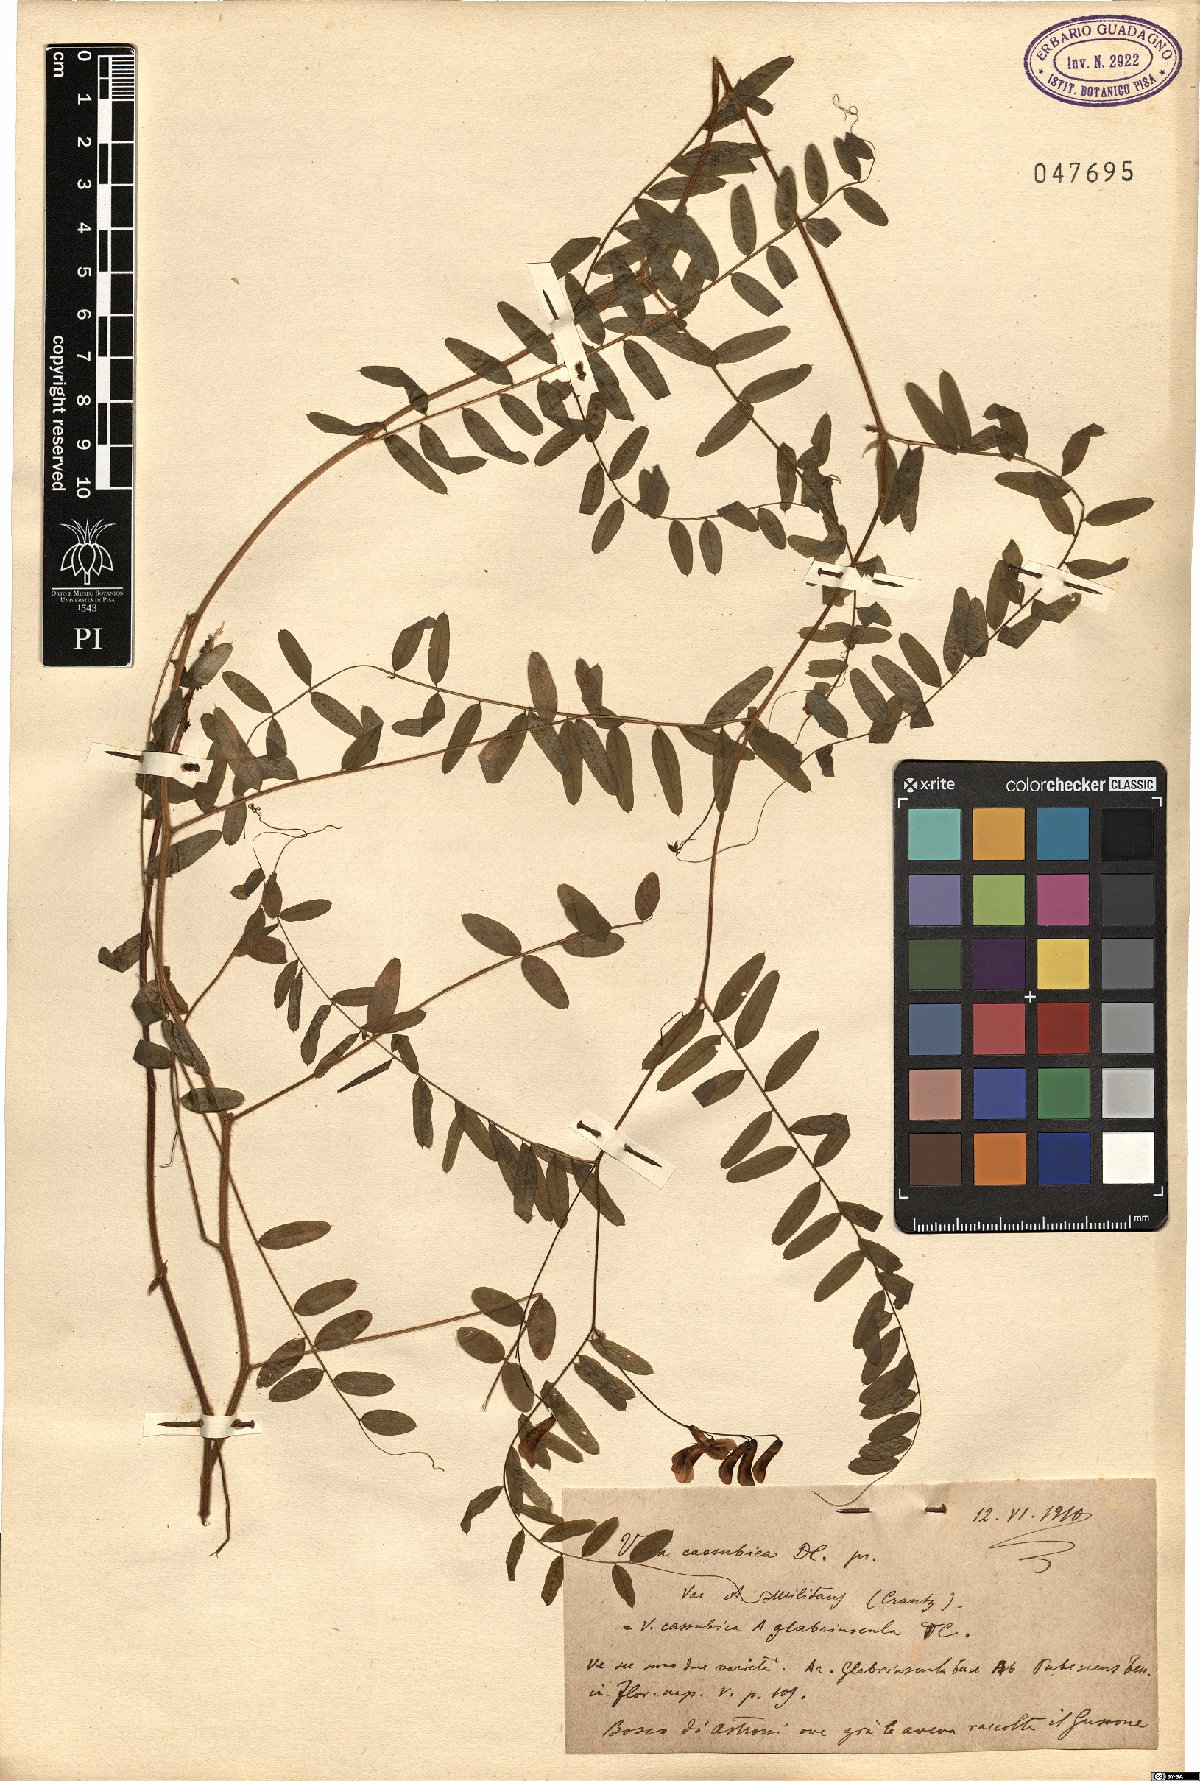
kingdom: Plantae
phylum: Tracheophyta
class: Magnoliopsida
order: Fabales
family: Fabaceae
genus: Vicia
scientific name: Vicia cassubica
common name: Danzig vetch
